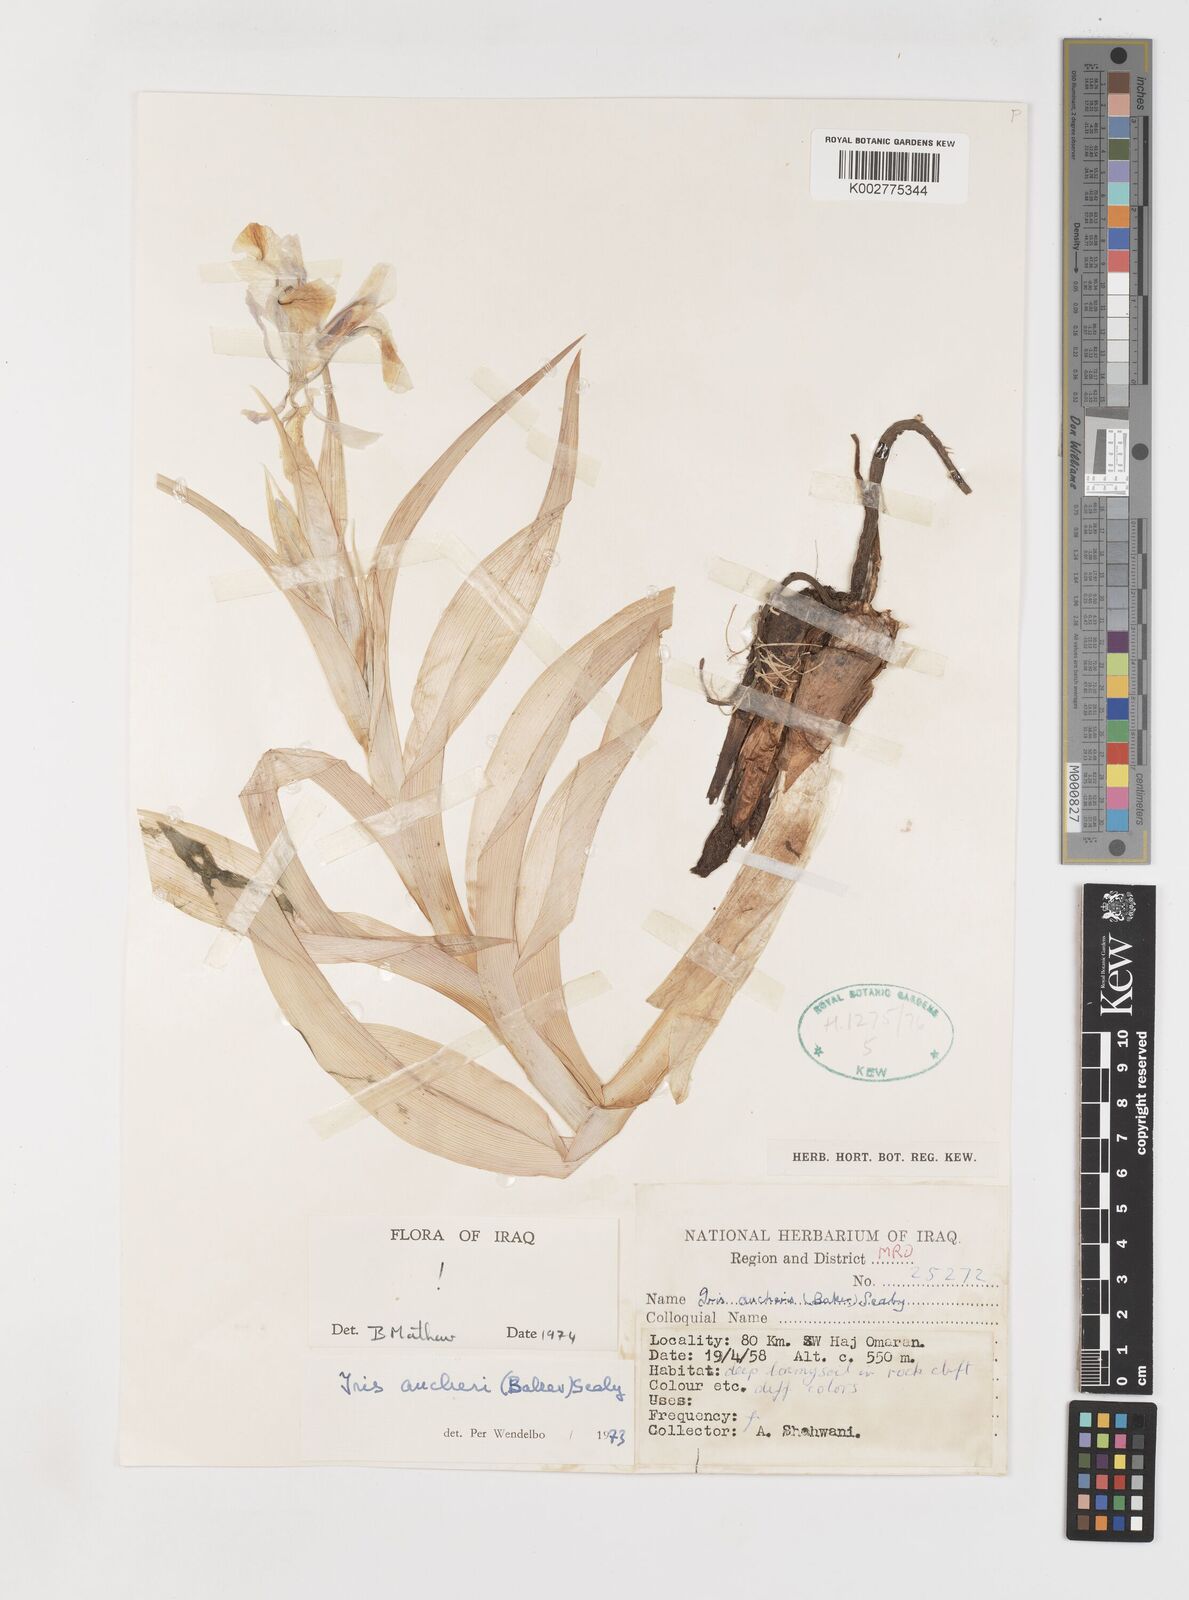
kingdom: Plantae
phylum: Tracheophyta
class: Liliopsida
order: Asparagales
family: Iridaceae
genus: Iris
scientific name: Iris aucheri
